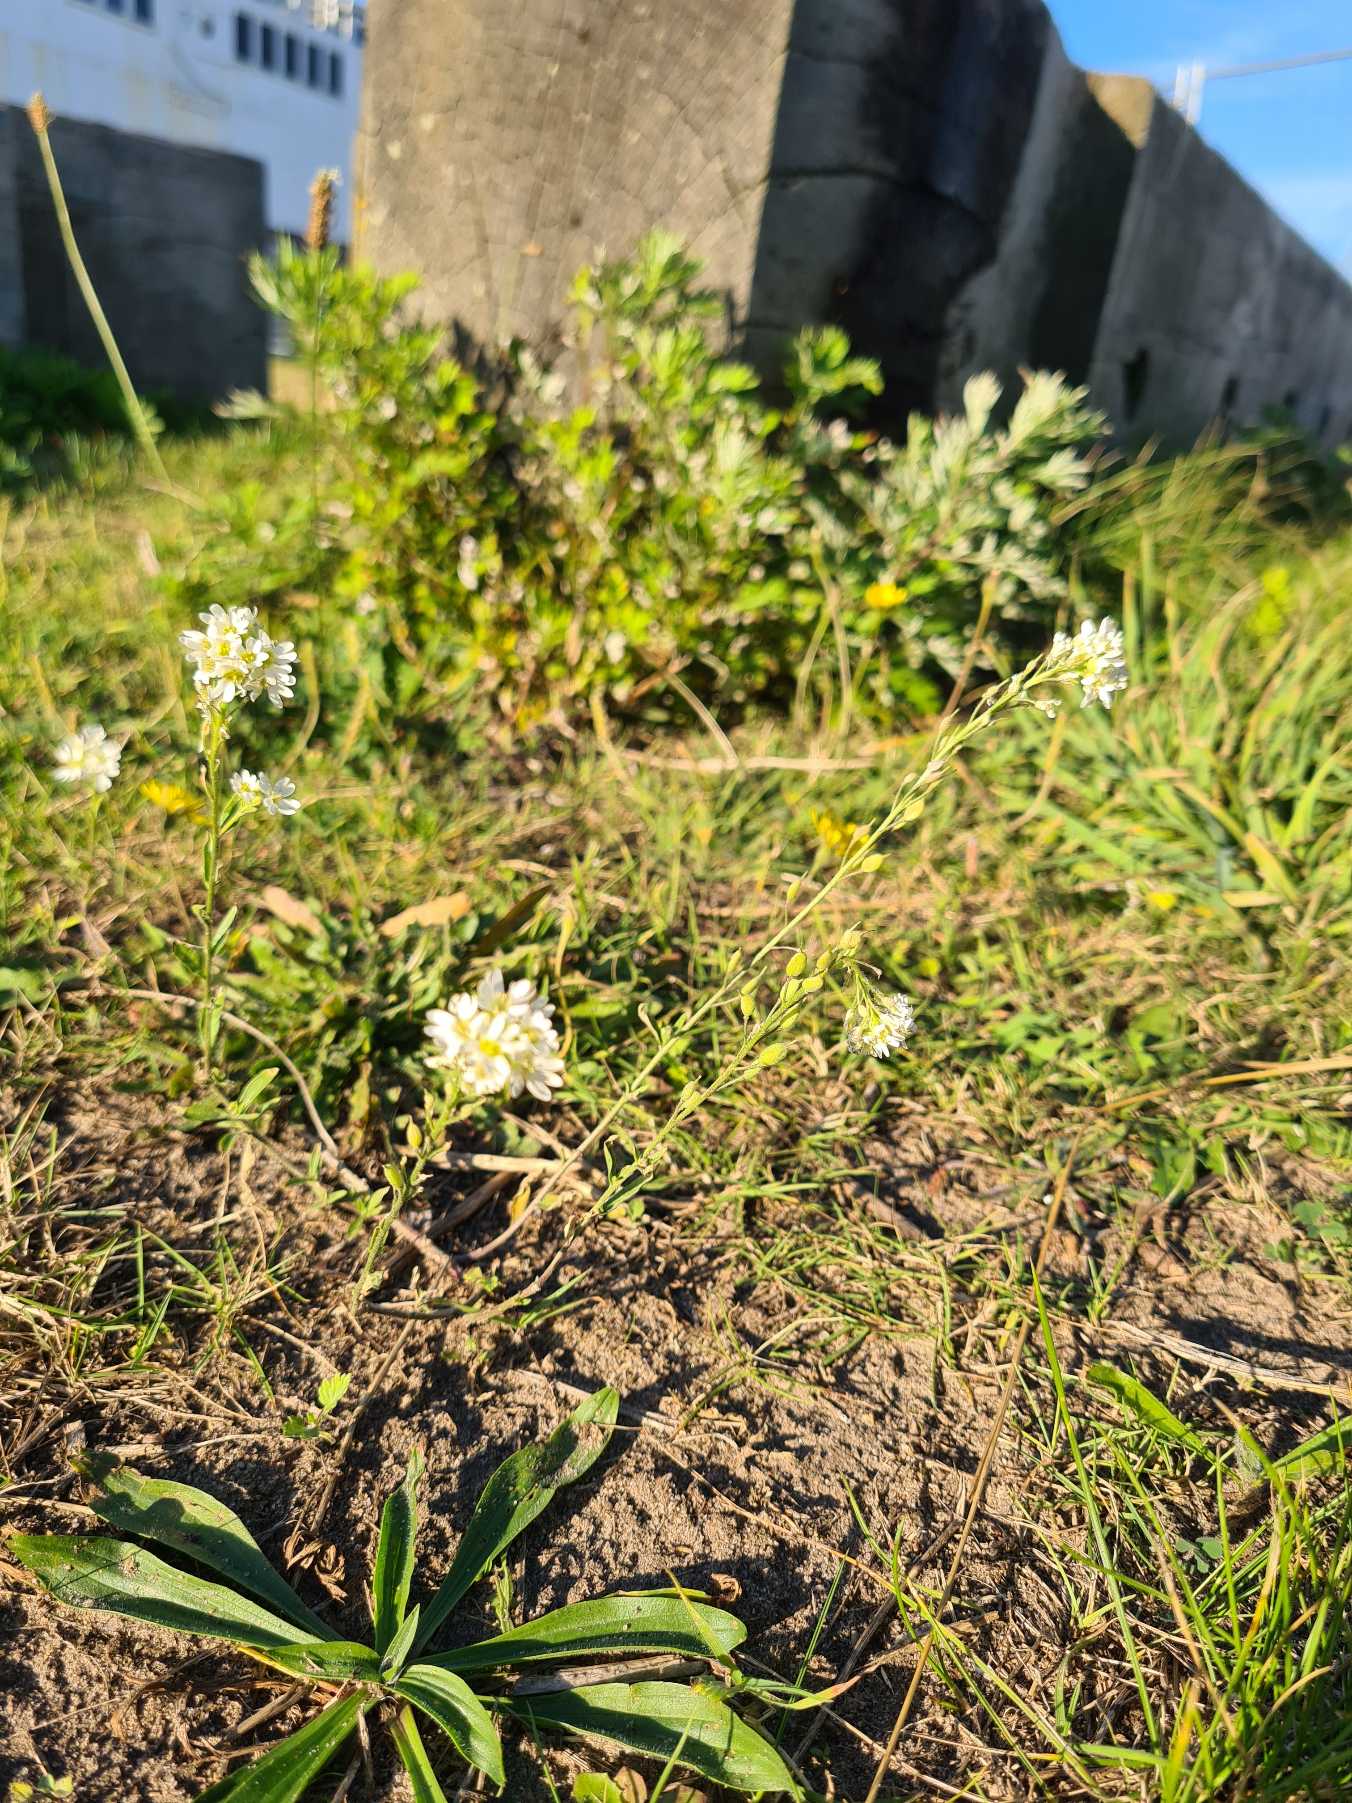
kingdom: Plantae
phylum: Tracheophyta
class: Magnoliopsida
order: Brassicales
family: Brassicaceae
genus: Berteroa
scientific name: Berteroa incana
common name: Kløvplade
